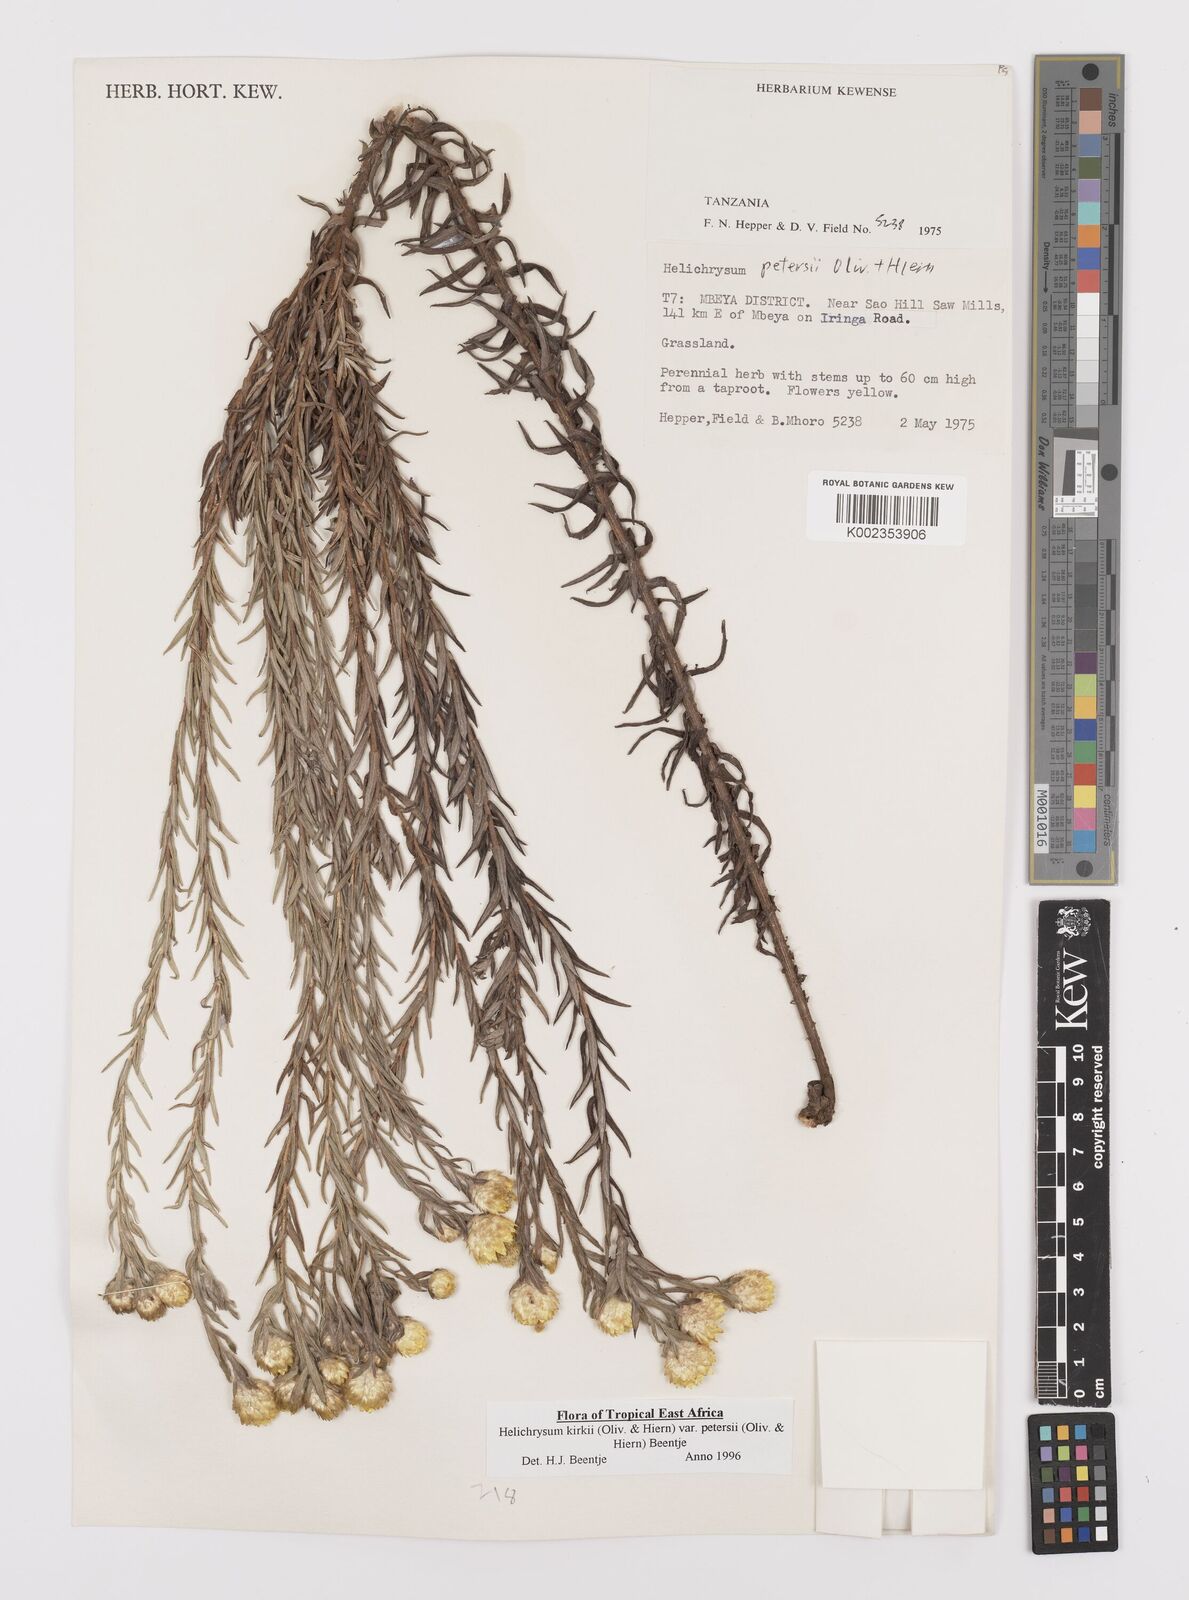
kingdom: Plantae
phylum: Tracheophyta
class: Magnoliopsida
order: Asterales
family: Asteraceae
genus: Helichrysum
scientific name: Helichrysum kirkii
